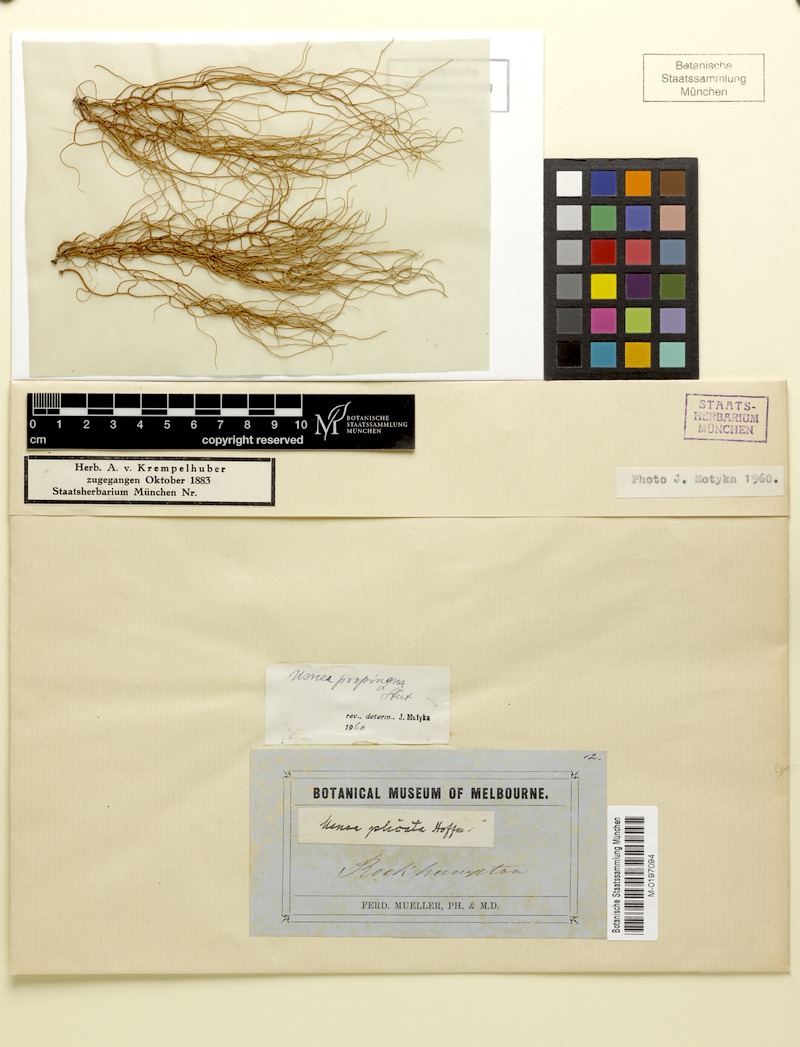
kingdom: Fungi
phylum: Ascomycota
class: Lecanoromycetes
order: Lecanorales
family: Parmeliaceae
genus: Usnea
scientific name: Usnea nidifica
